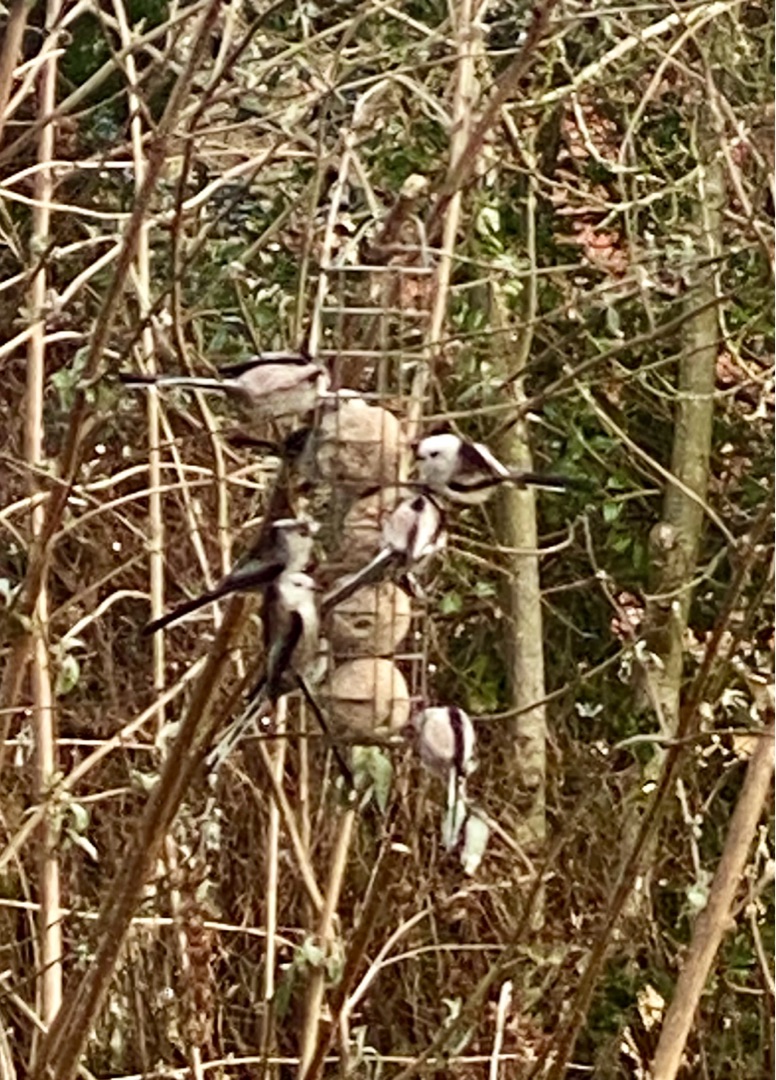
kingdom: Animalia
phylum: Chordata
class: Aves
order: Passeriformes
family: Aegithalidae
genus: Aegithalos
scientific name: Aegithalos caudatus
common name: Halemejse
